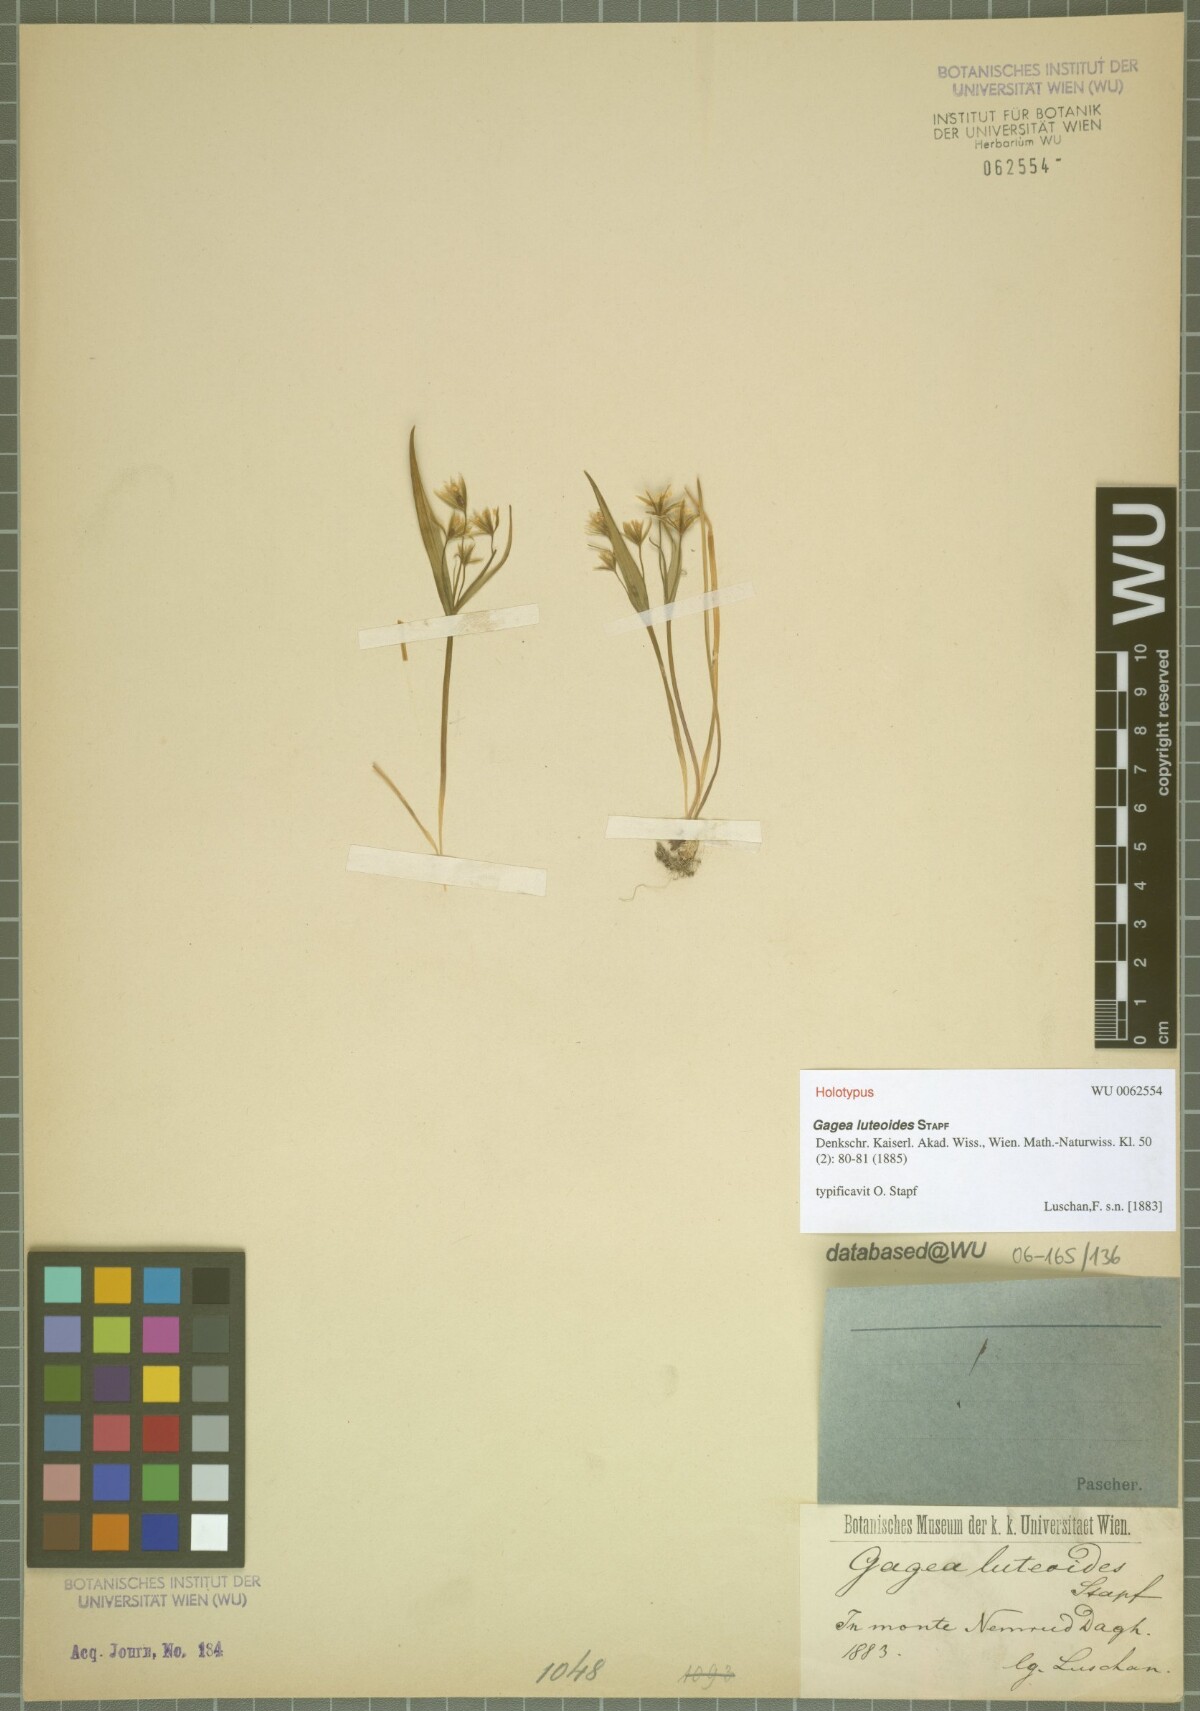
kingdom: Plantae
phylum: Tracheophyta
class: Liliopsida
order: Liliales
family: Liliaceae
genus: Gagea
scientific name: Gagea luteoides
